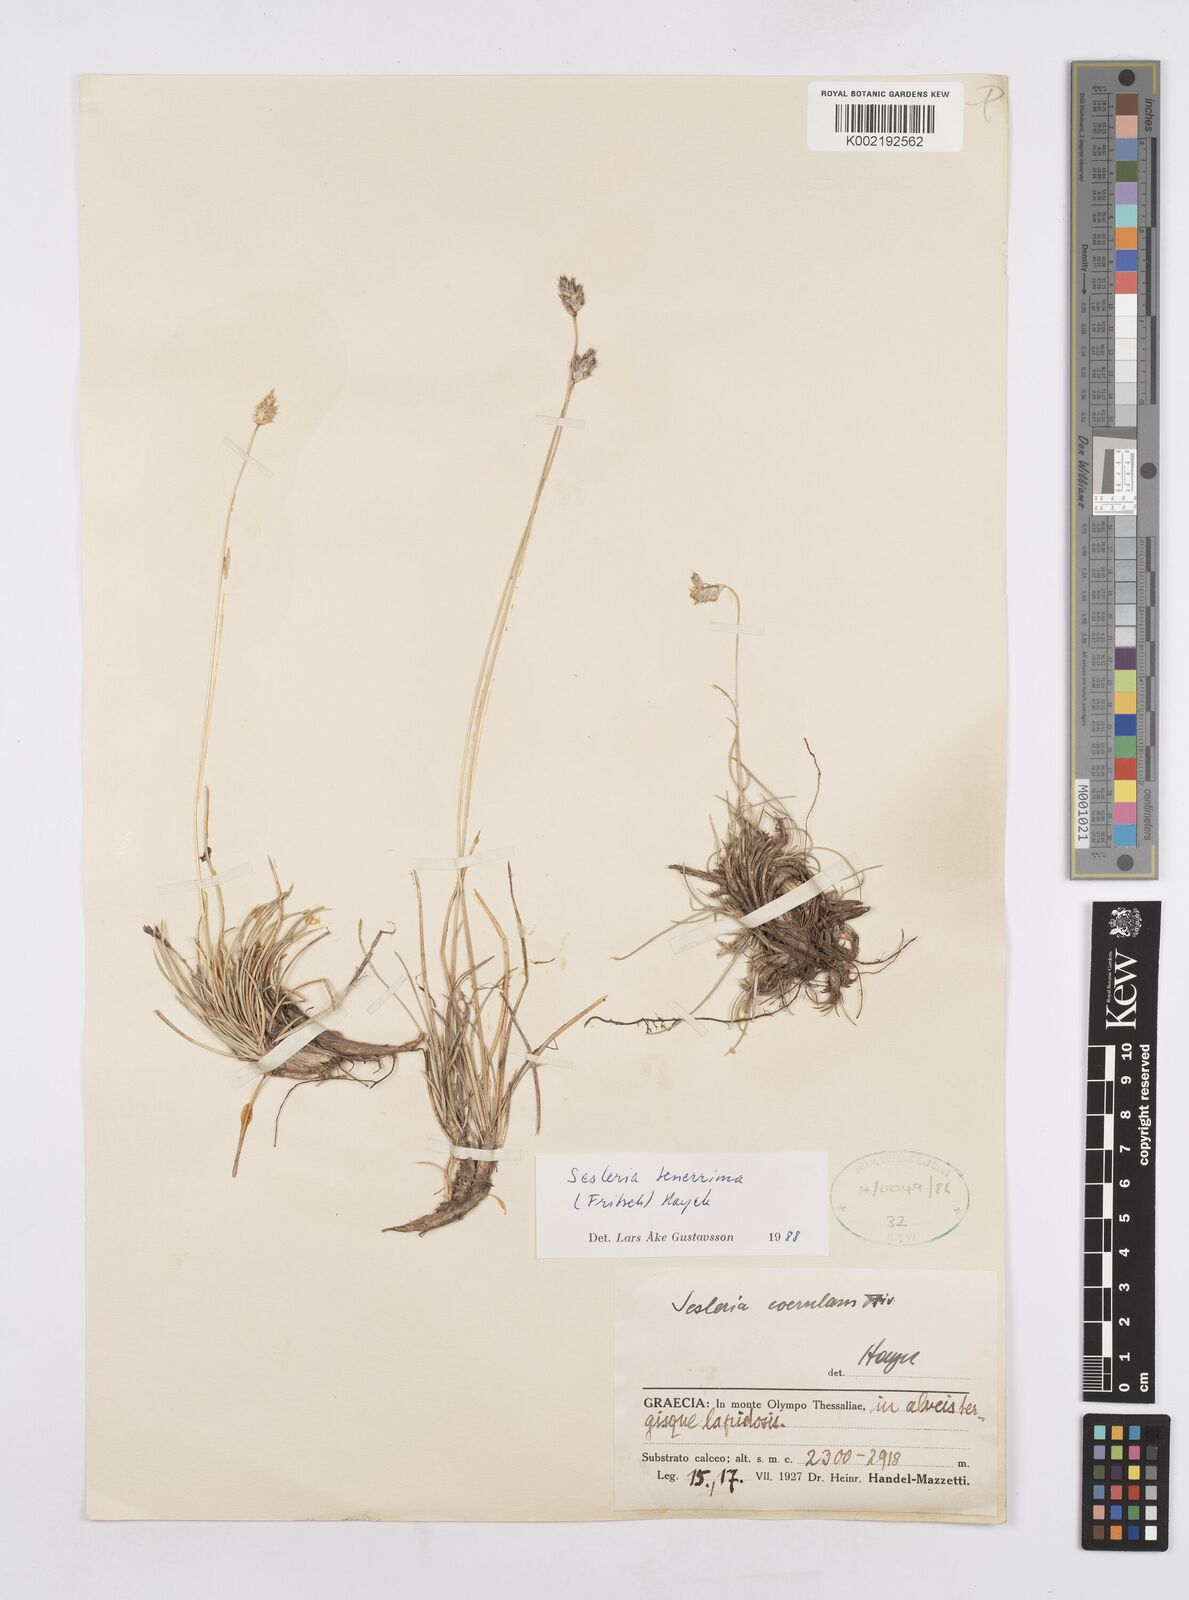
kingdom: Plantae
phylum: Tracheophyta
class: Liliopsida
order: Poales
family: Poaceae
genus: Sesleria
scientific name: Sesleria tenerrima
